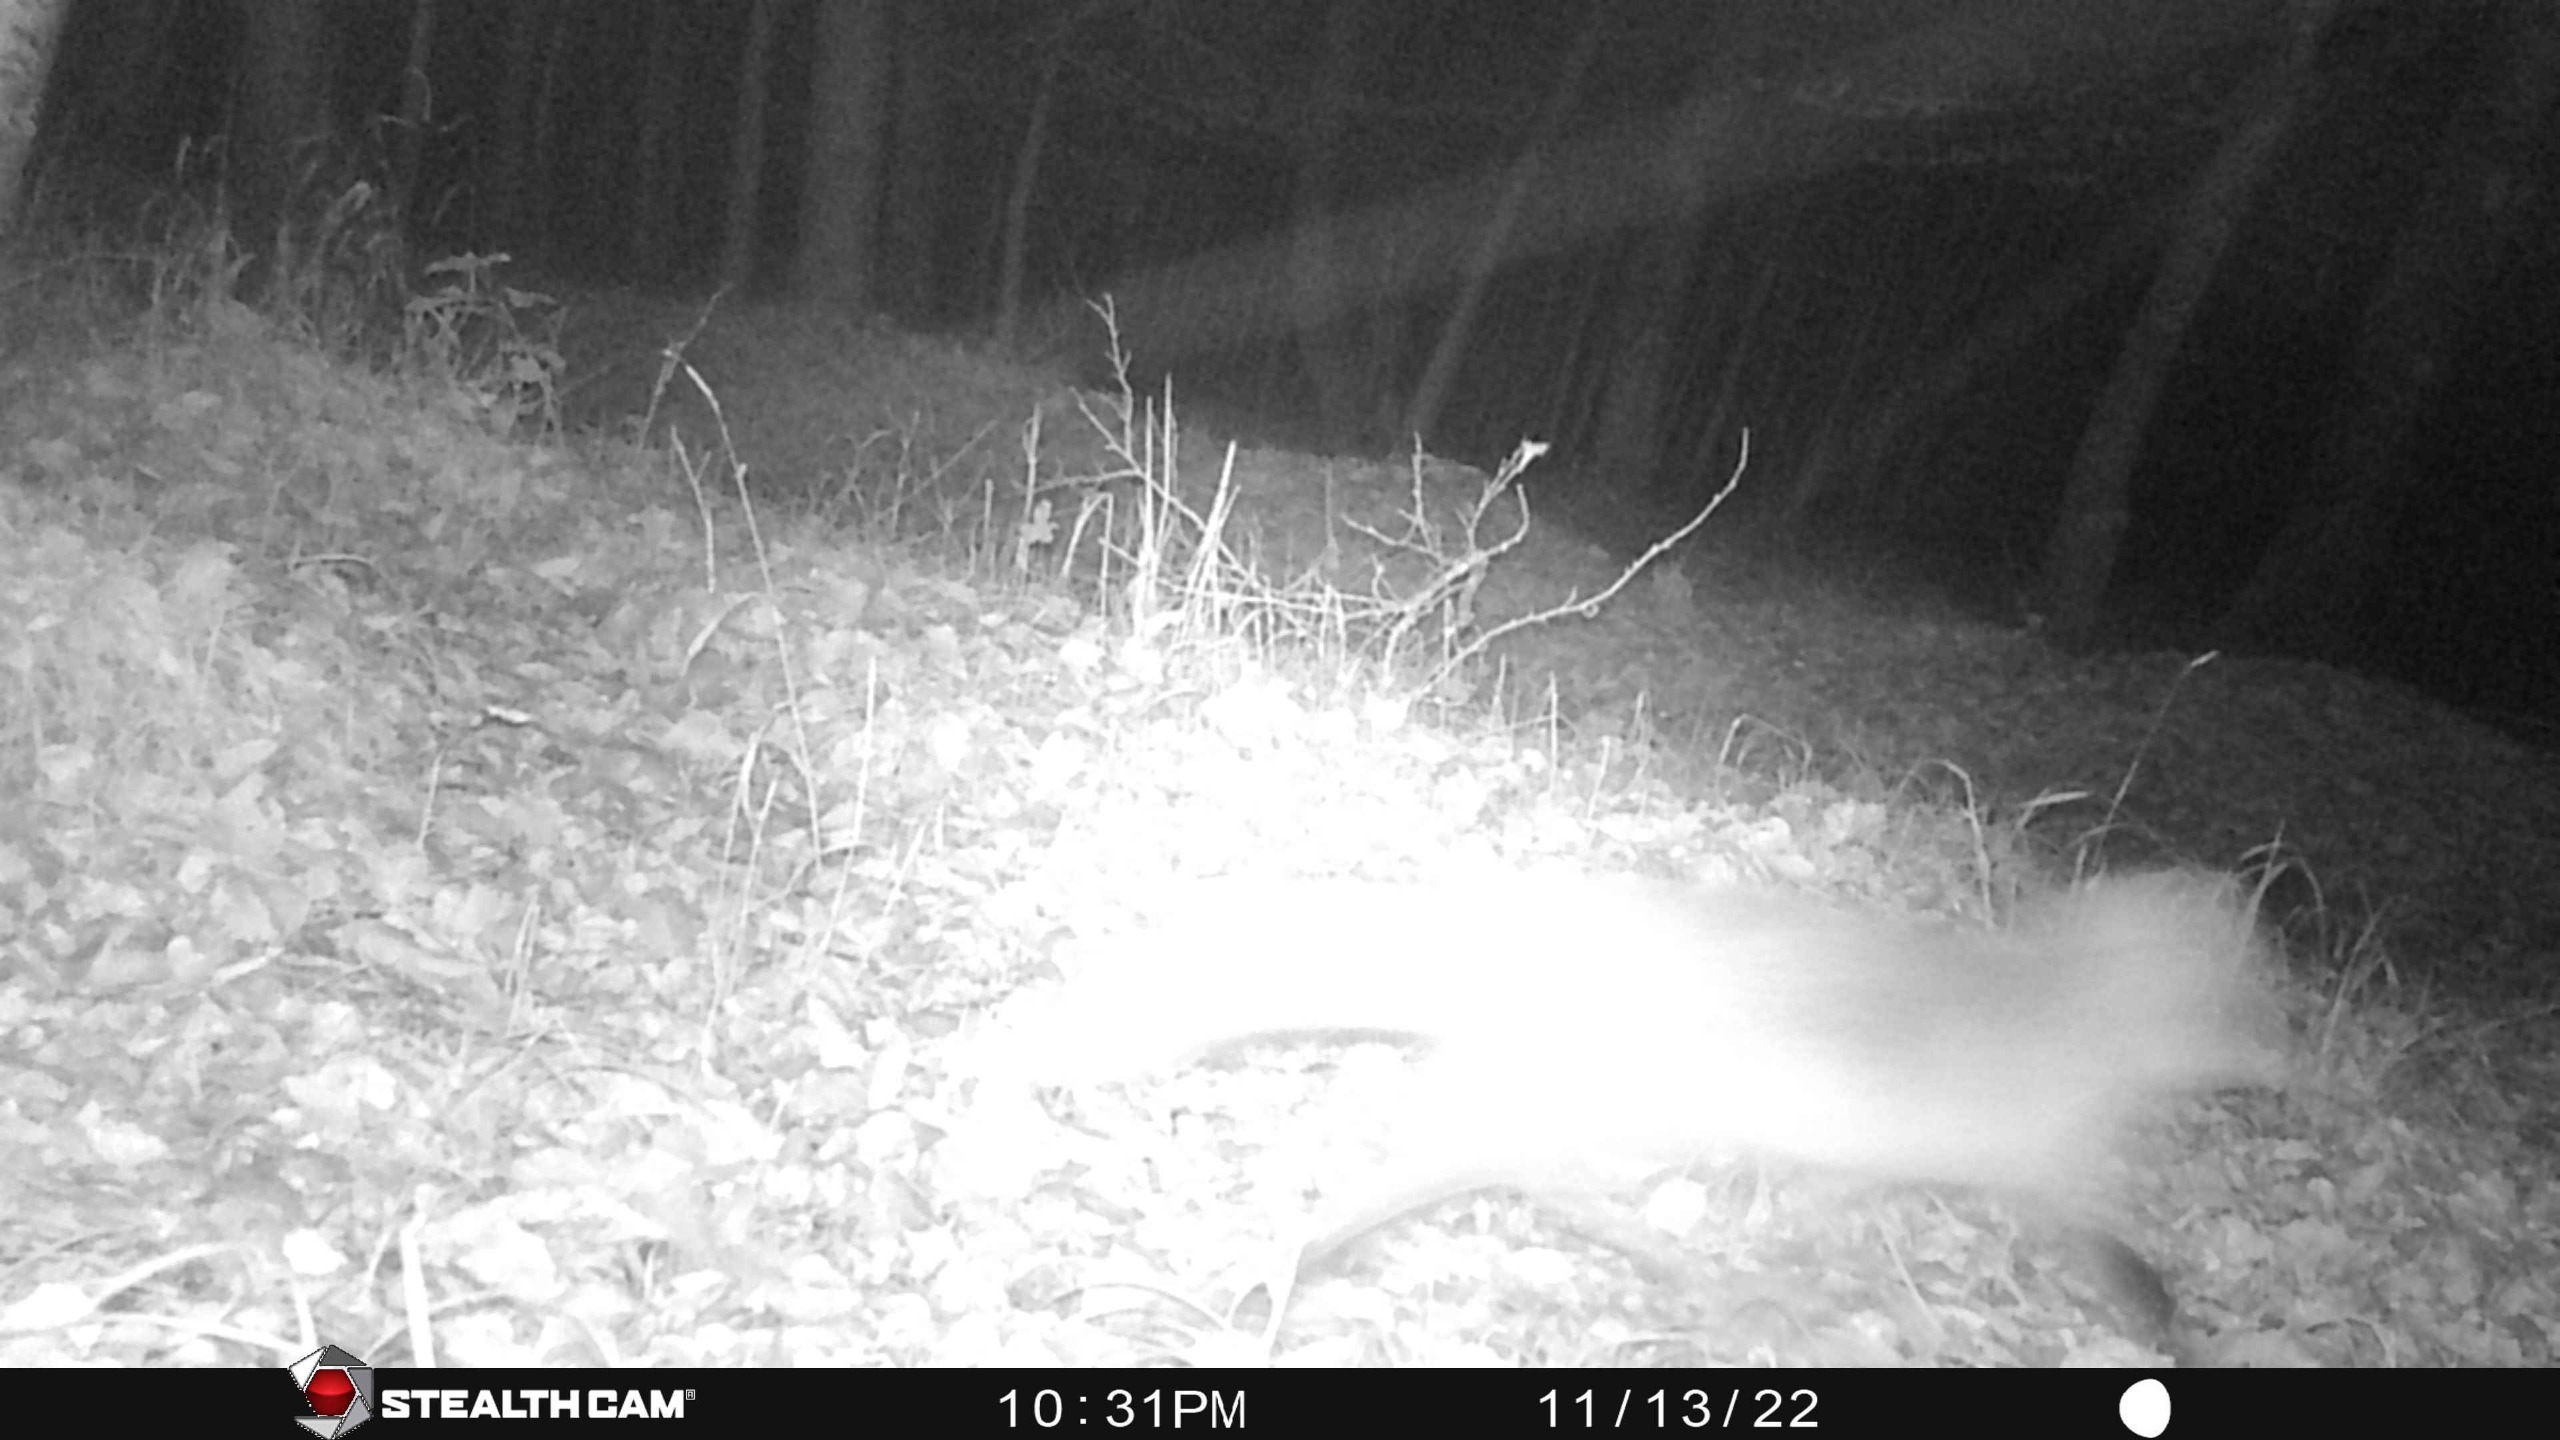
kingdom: Animalia
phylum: Chordata
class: Mammalia
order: Carnivora
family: Canidae
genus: Vulpes
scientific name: Vulpes vulpes
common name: Ræv
